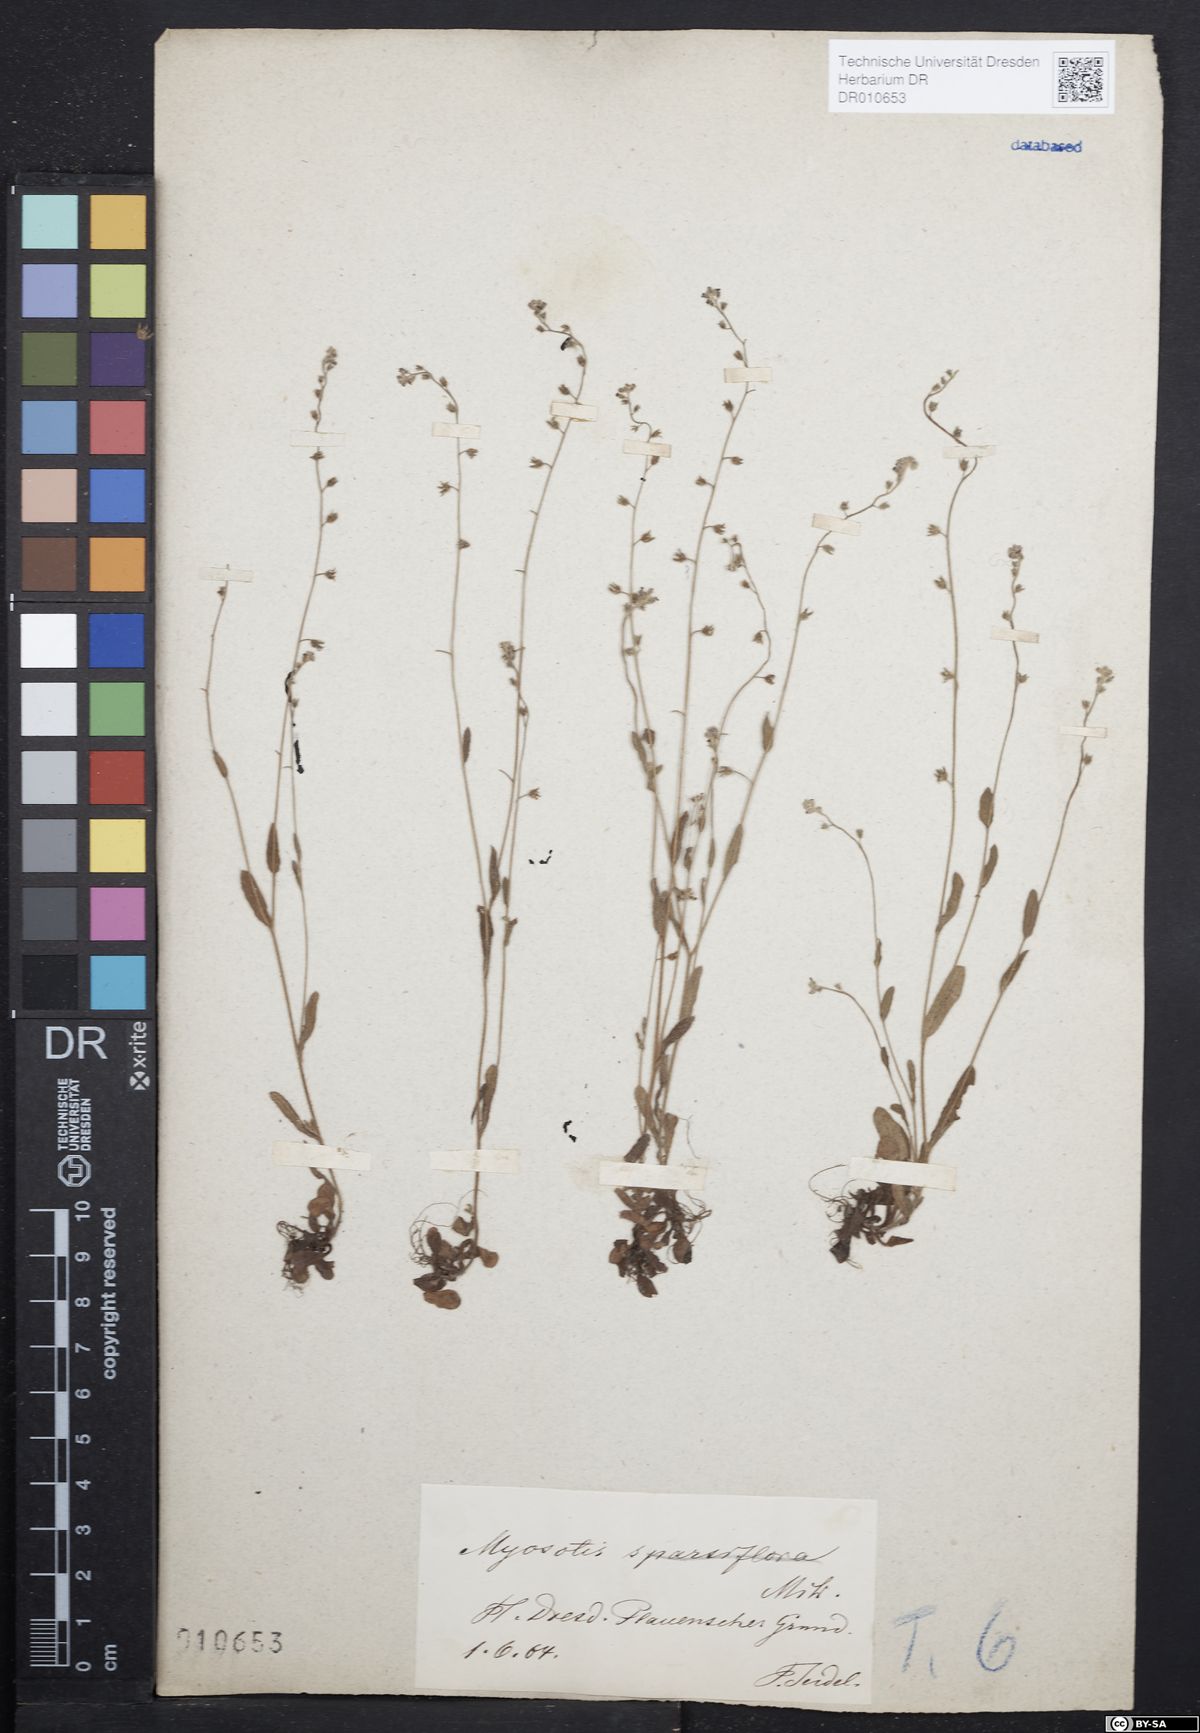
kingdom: Plantae
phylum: Tracheophyta
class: Magnoliopsida
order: Boraginales
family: Boraginaceae
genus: Myosotis
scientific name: Myosotis ramosissima
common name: Early forget-me-not
